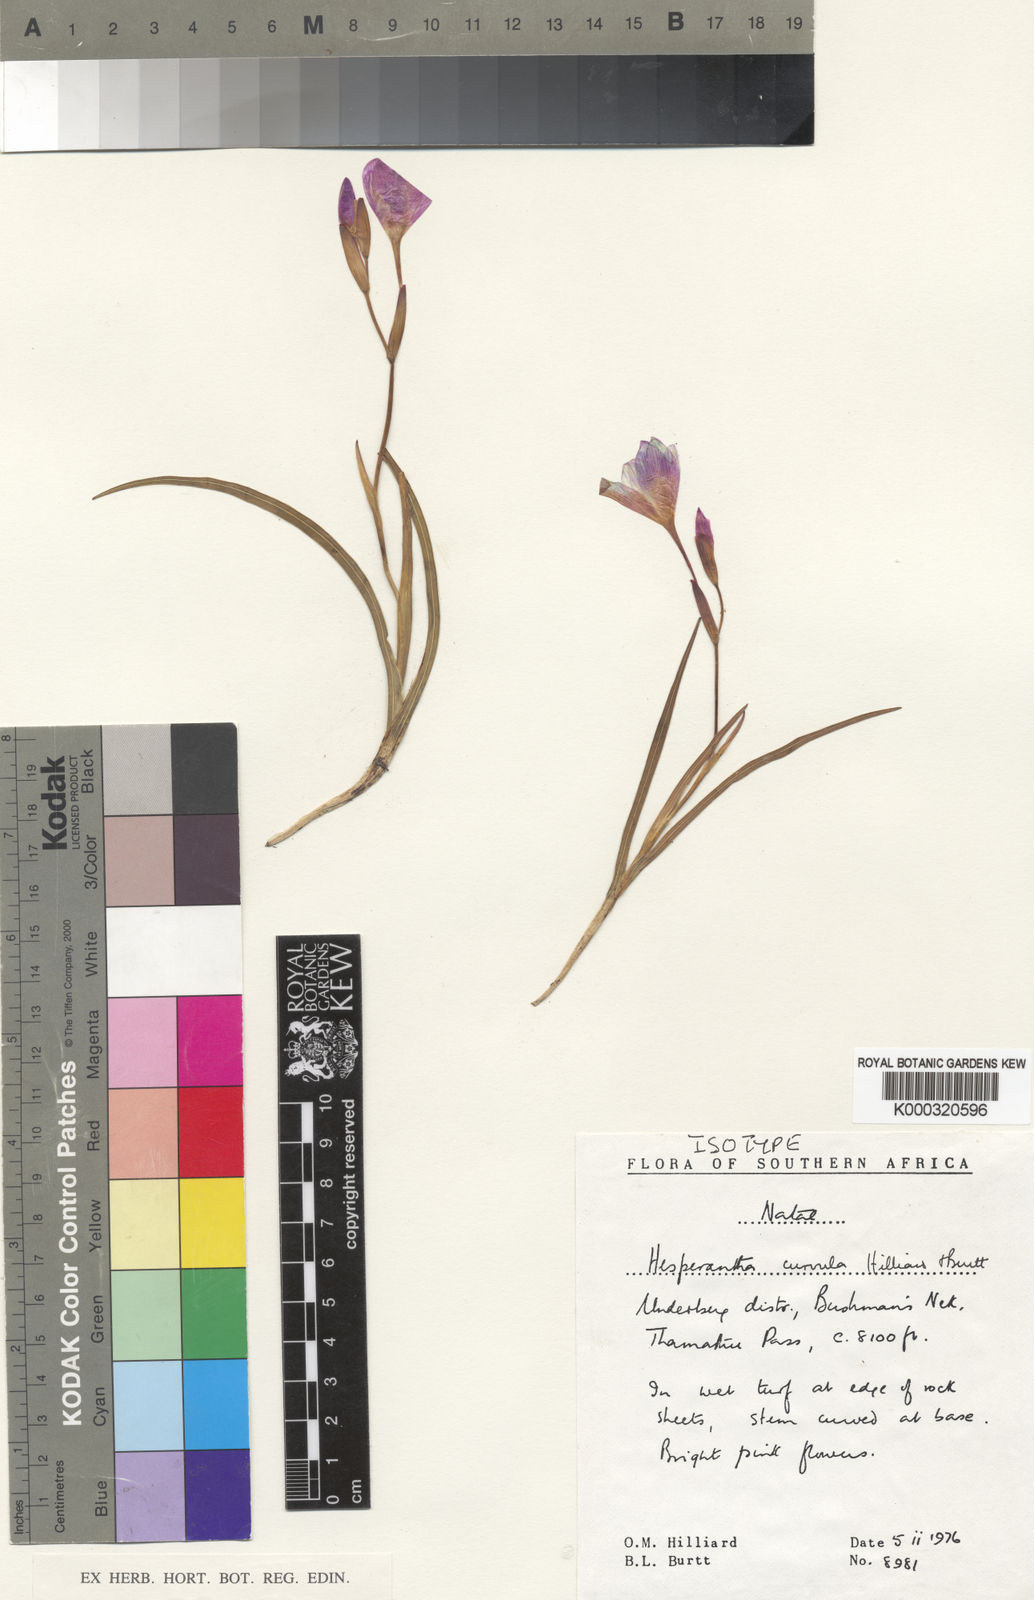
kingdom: Plantae
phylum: Tracheophyta
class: Liliopsida
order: Asparagales
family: Iridaceae
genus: Hesperantha
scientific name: Hesperantha curvula
